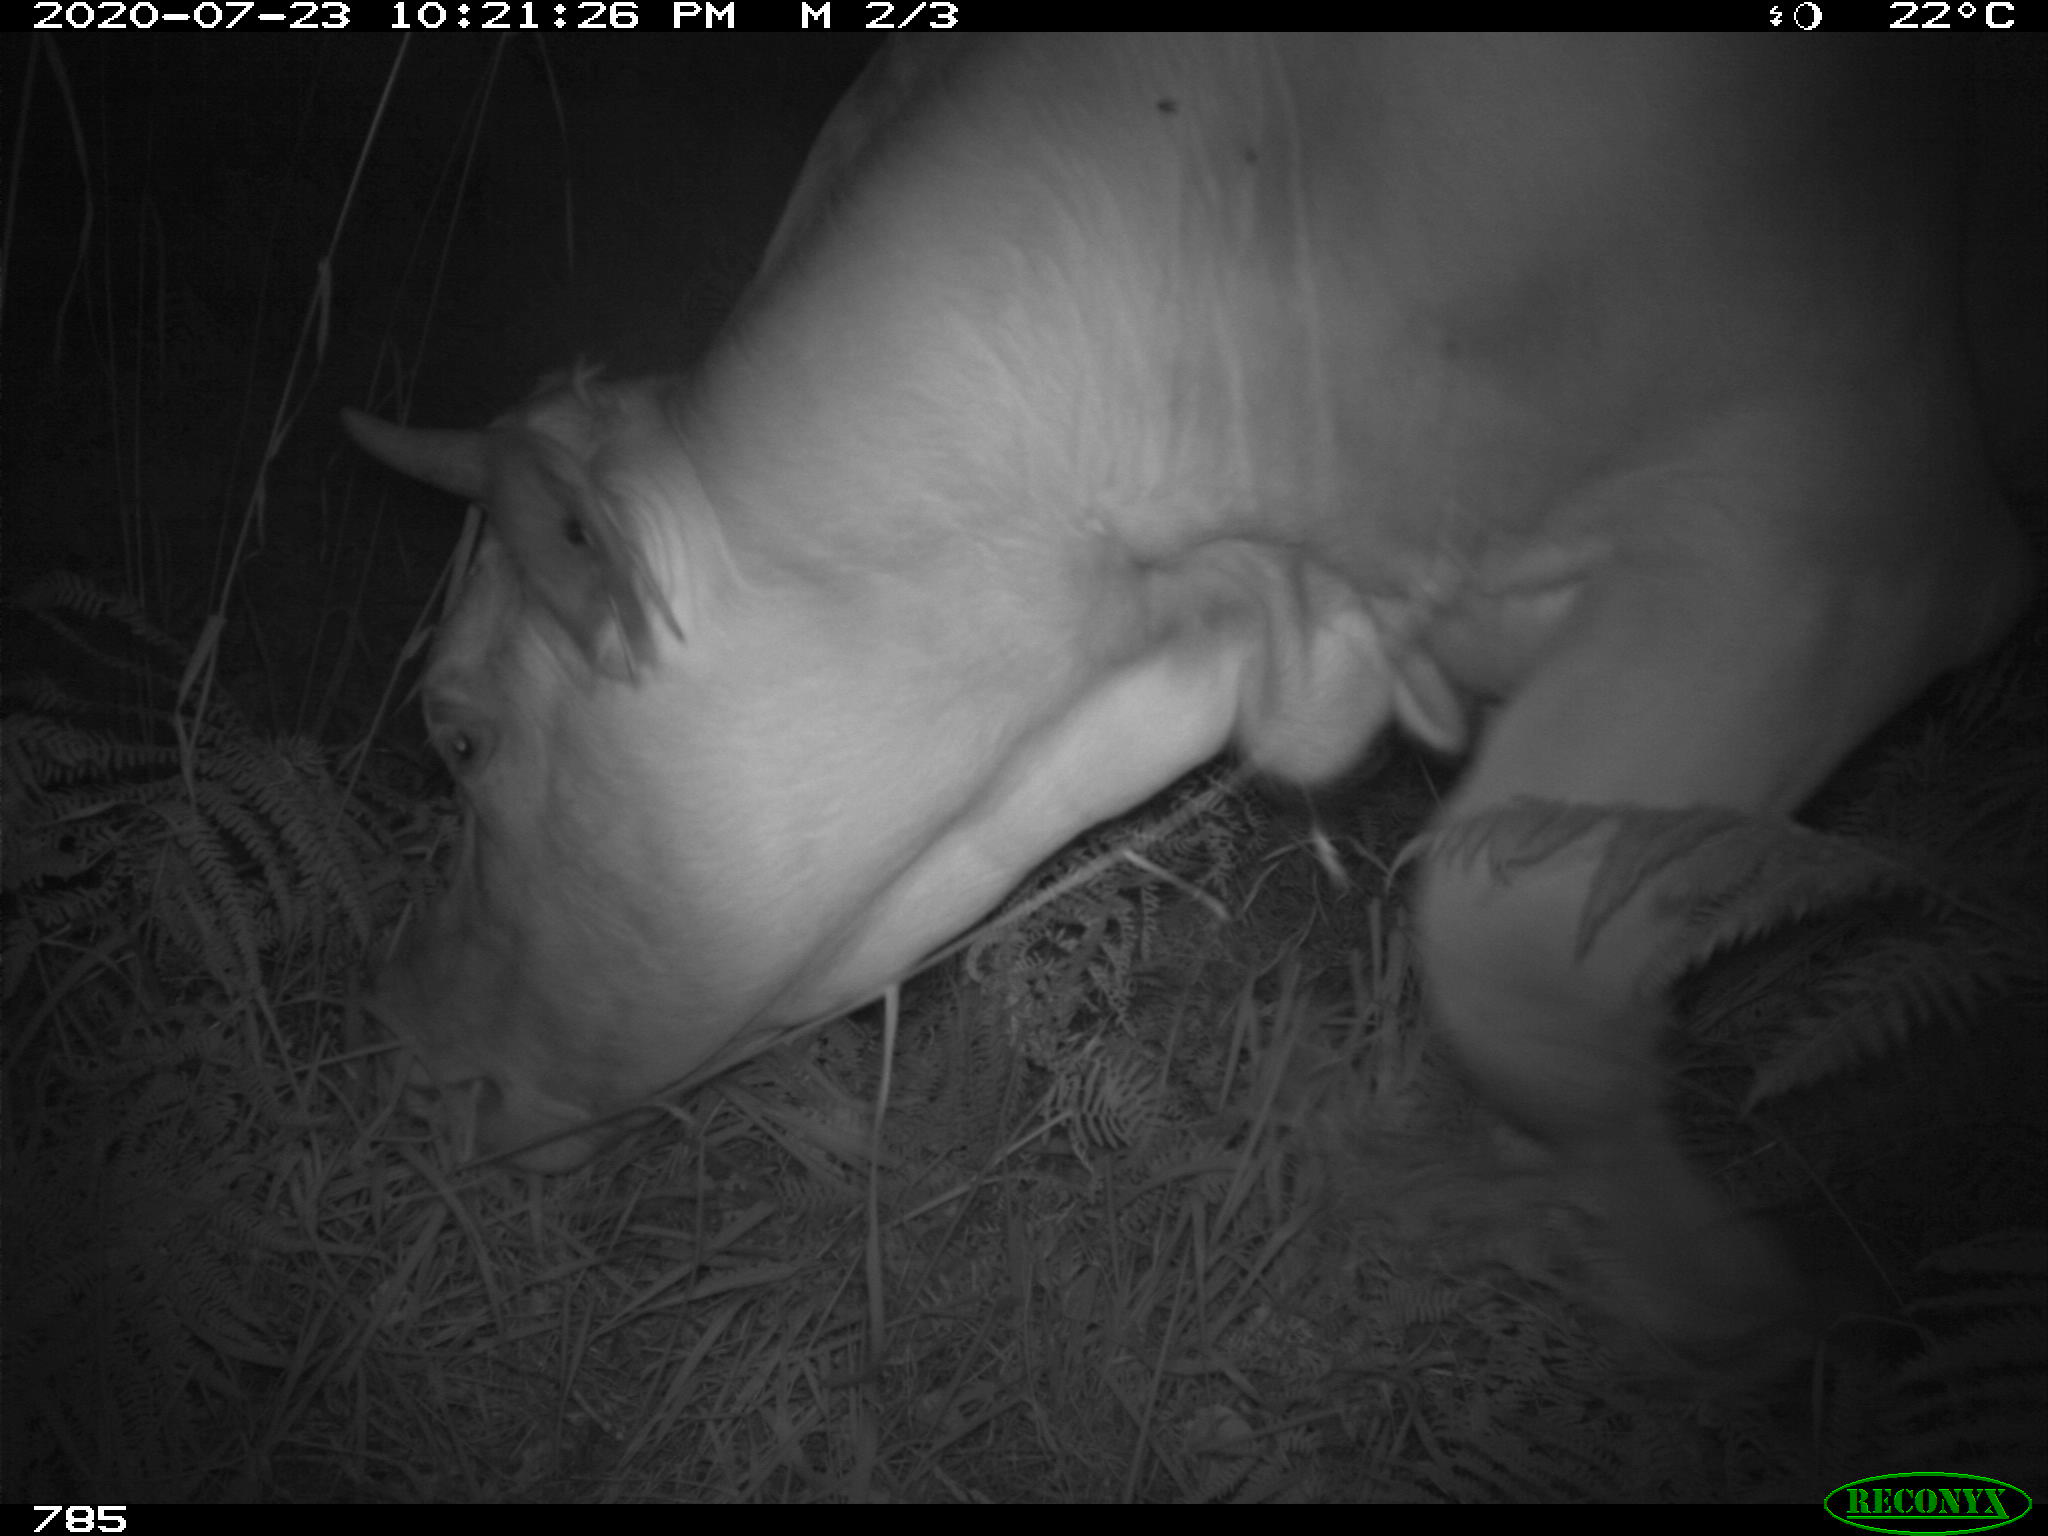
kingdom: Animalia
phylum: Chordata
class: Mammalia
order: Artiodactyla
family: Bovidae
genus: Bos
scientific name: Bos taurus
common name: Domesticated cattle
